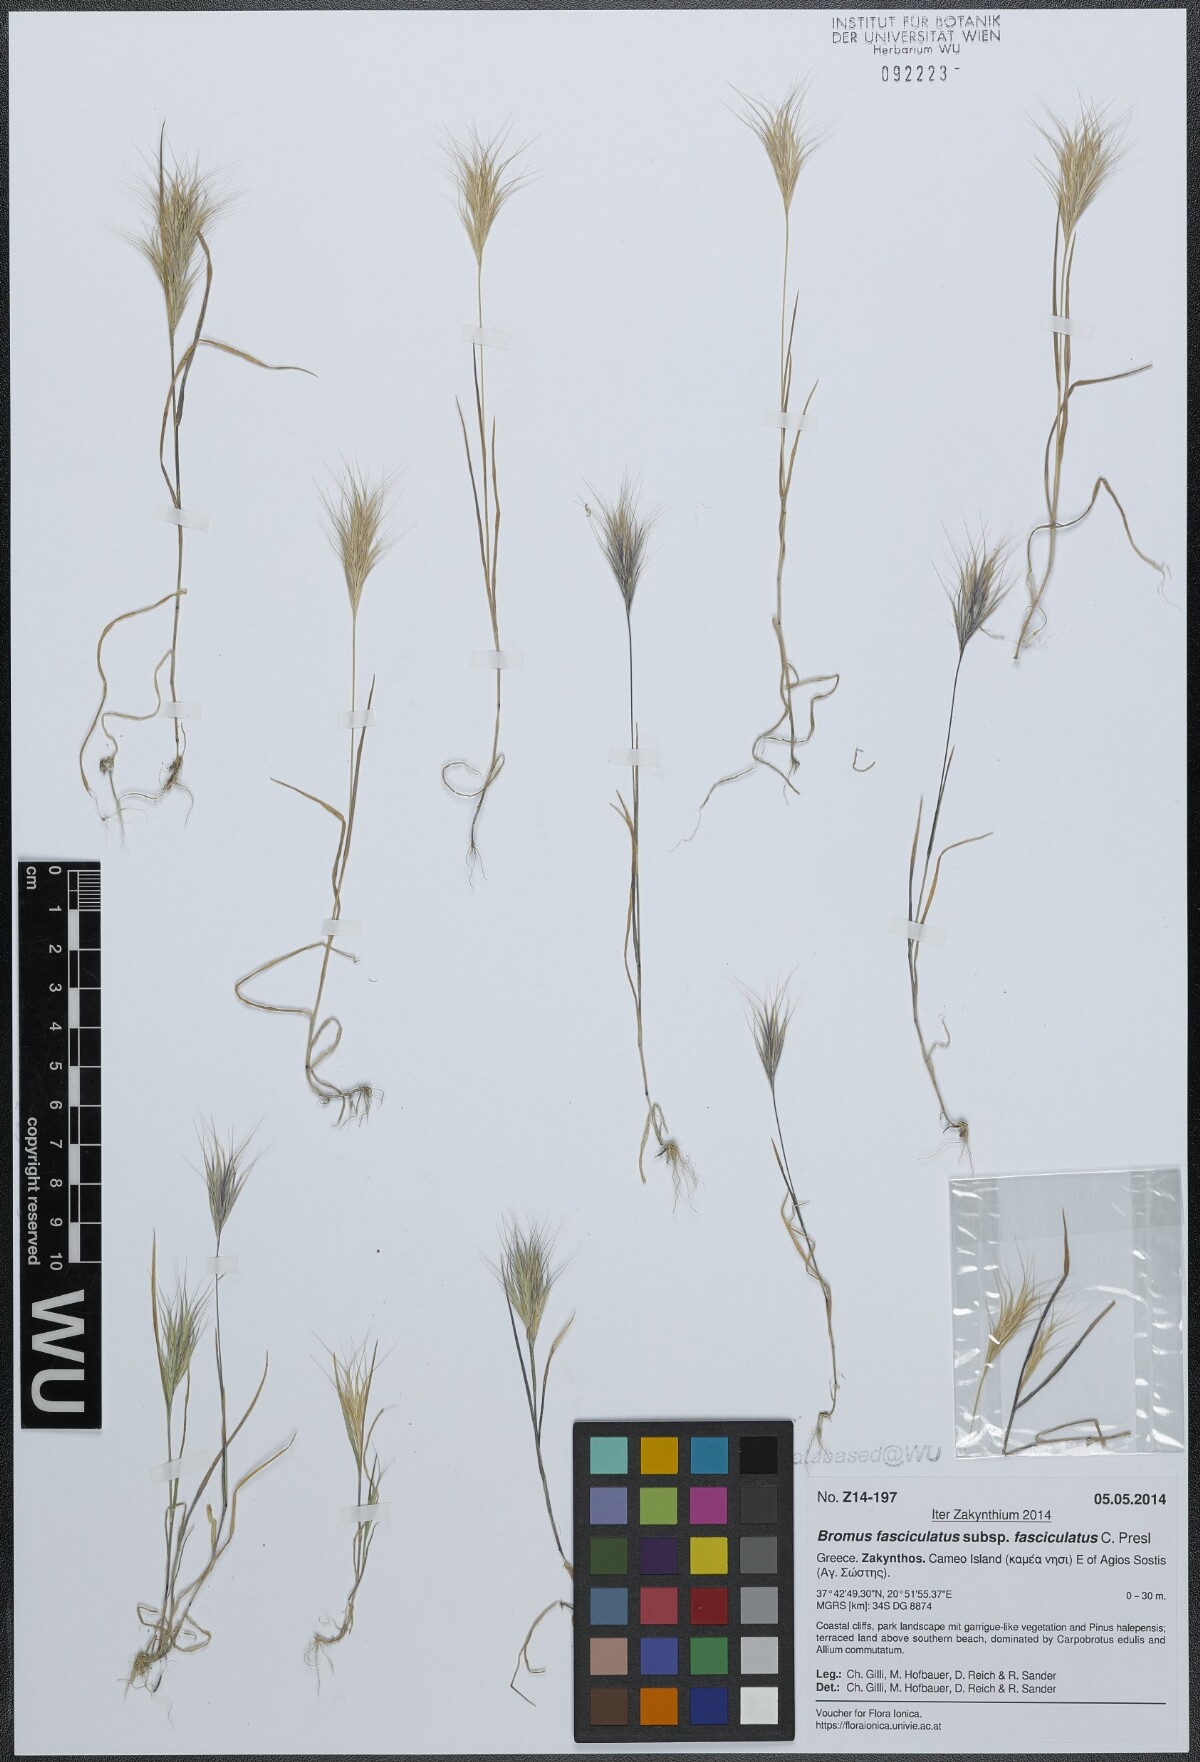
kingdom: Plantae
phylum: Tracheophyta
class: Liliopsida
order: Poales
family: Poaceae
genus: Bromus
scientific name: Bromus fasciculatus
